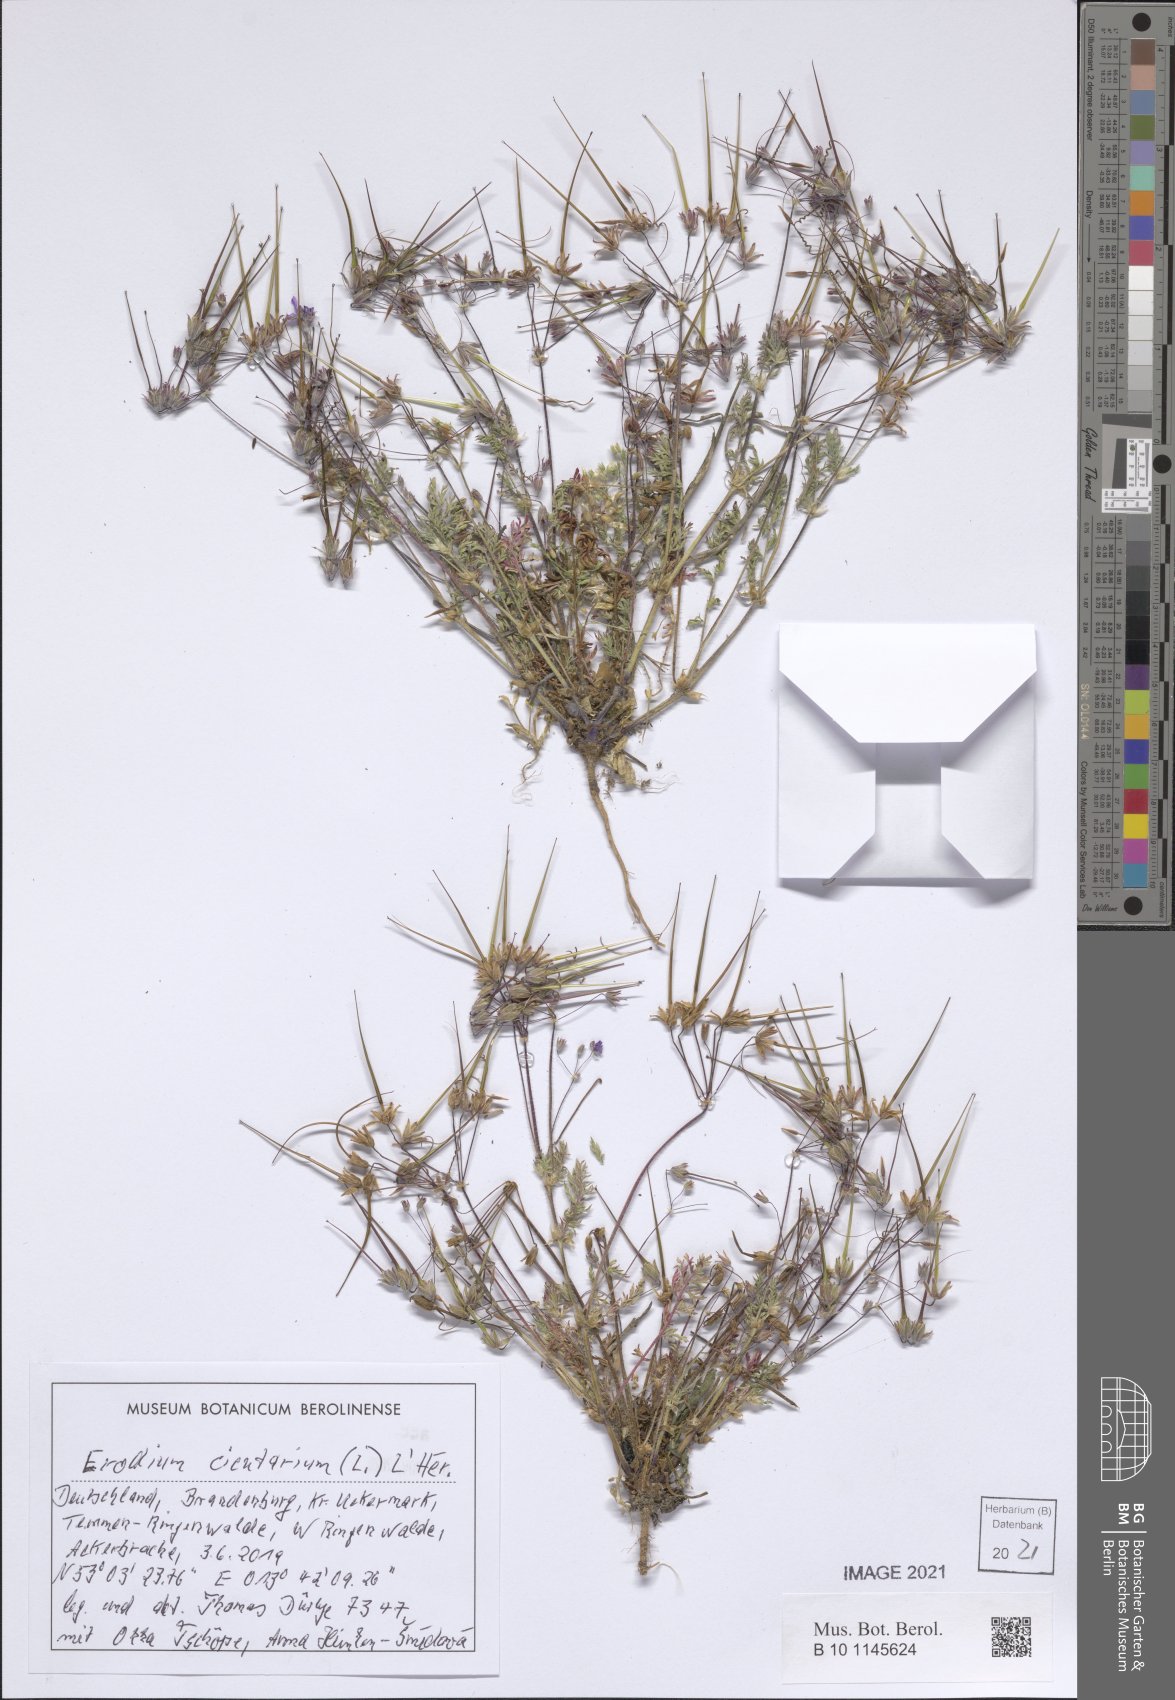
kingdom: Plantae
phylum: Tracheophyta
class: Magnoliopsida
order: Geraniales
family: Geraniaceae
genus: Erodium
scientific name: Erodium cicutarium
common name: Common stork's-bill
